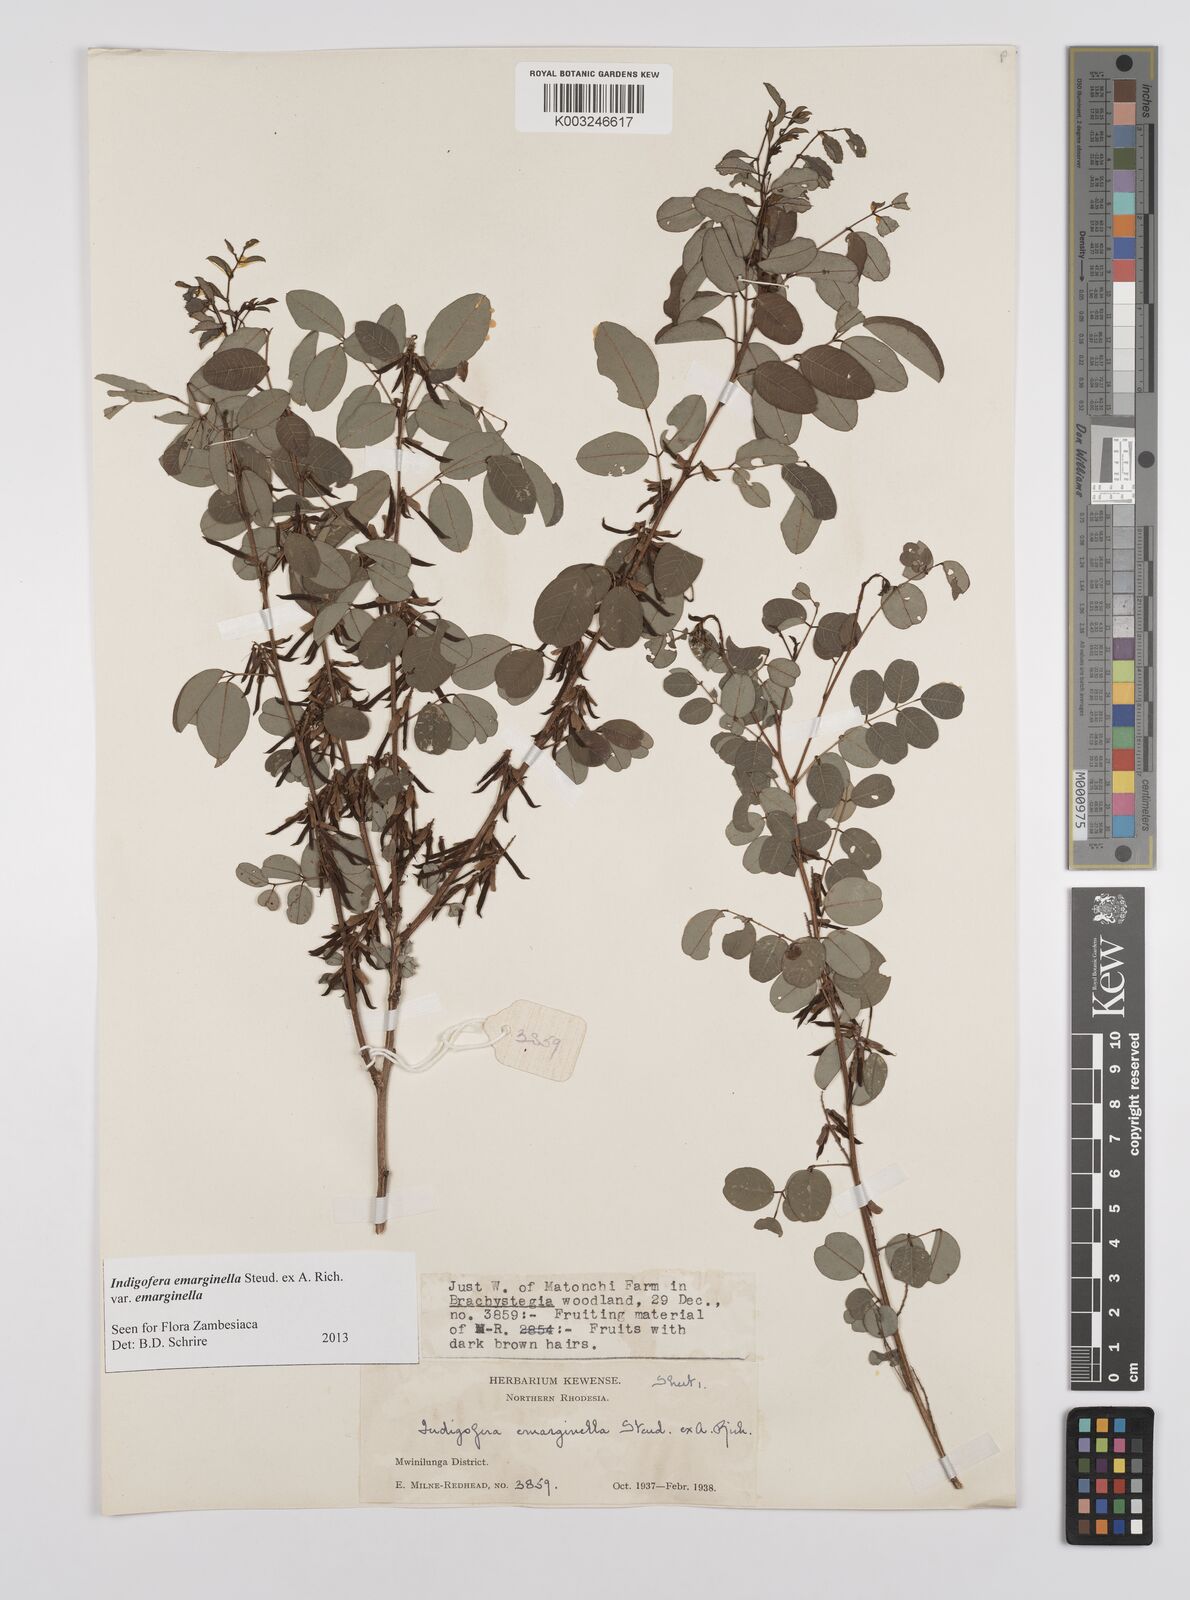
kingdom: Plantae
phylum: Tracheophyta
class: Magnoliopsida
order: Fabales
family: Fabaceae
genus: Indigofera
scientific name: Indigofera emarginella
